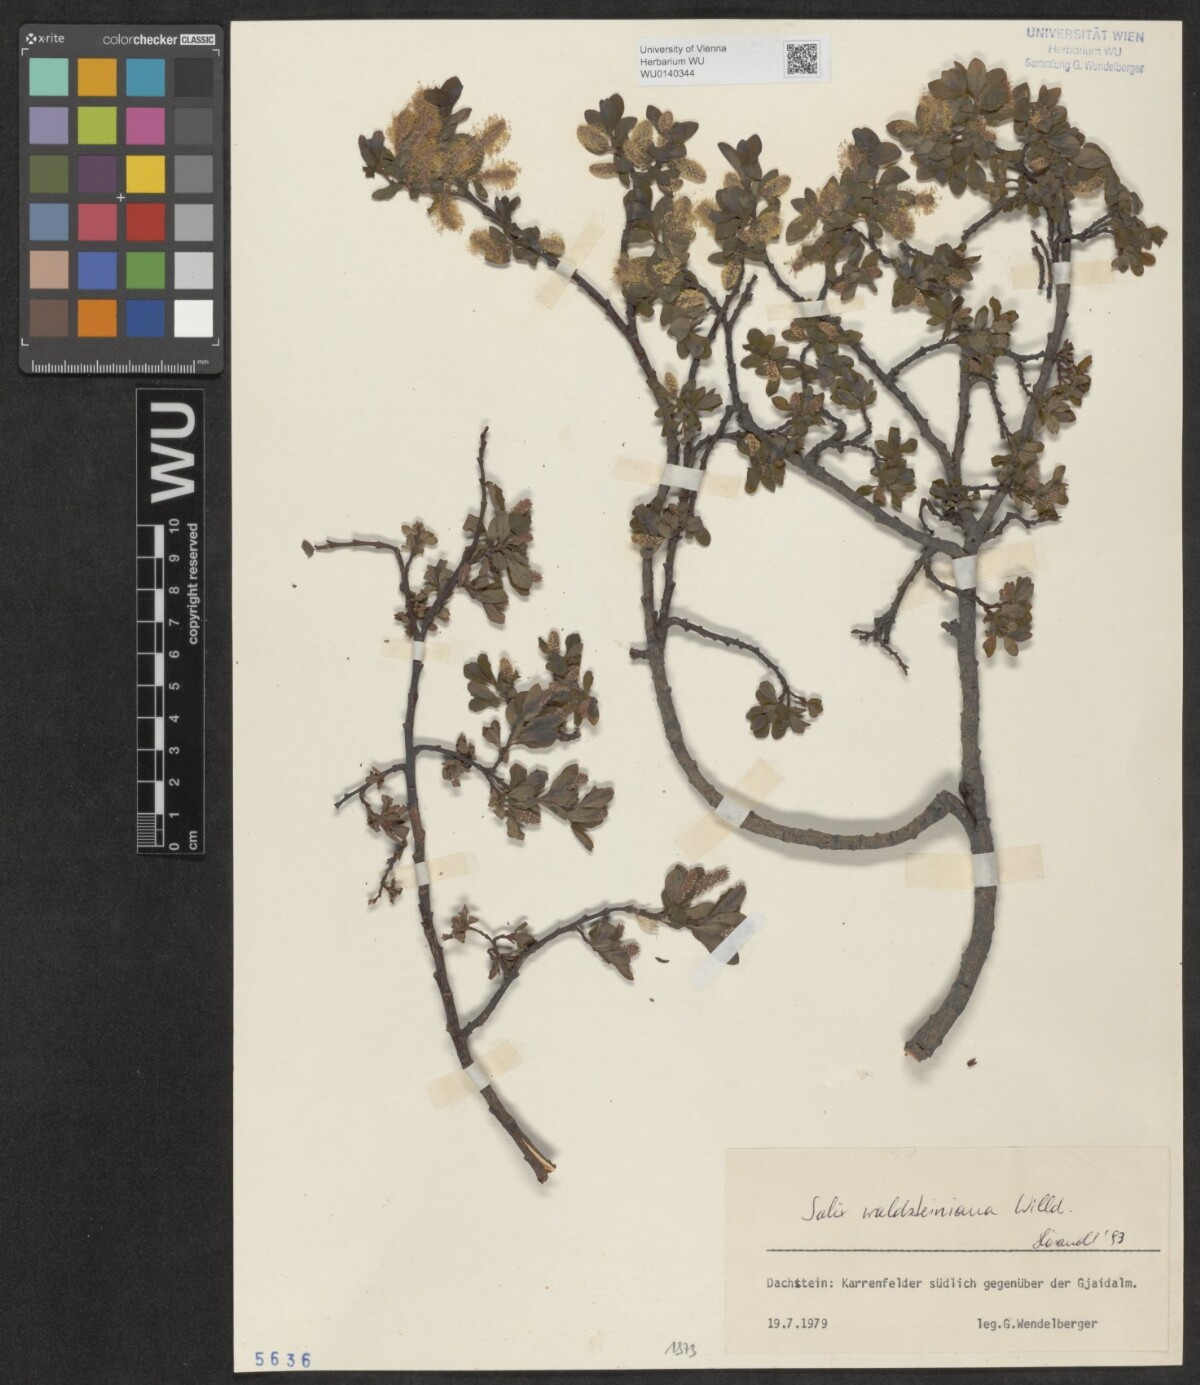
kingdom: Plantae
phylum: Tracheophyta
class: Magnoliopsida
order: Malpighiales
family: Salicaceae
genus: Salix
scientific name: Salix waldsteiniana
